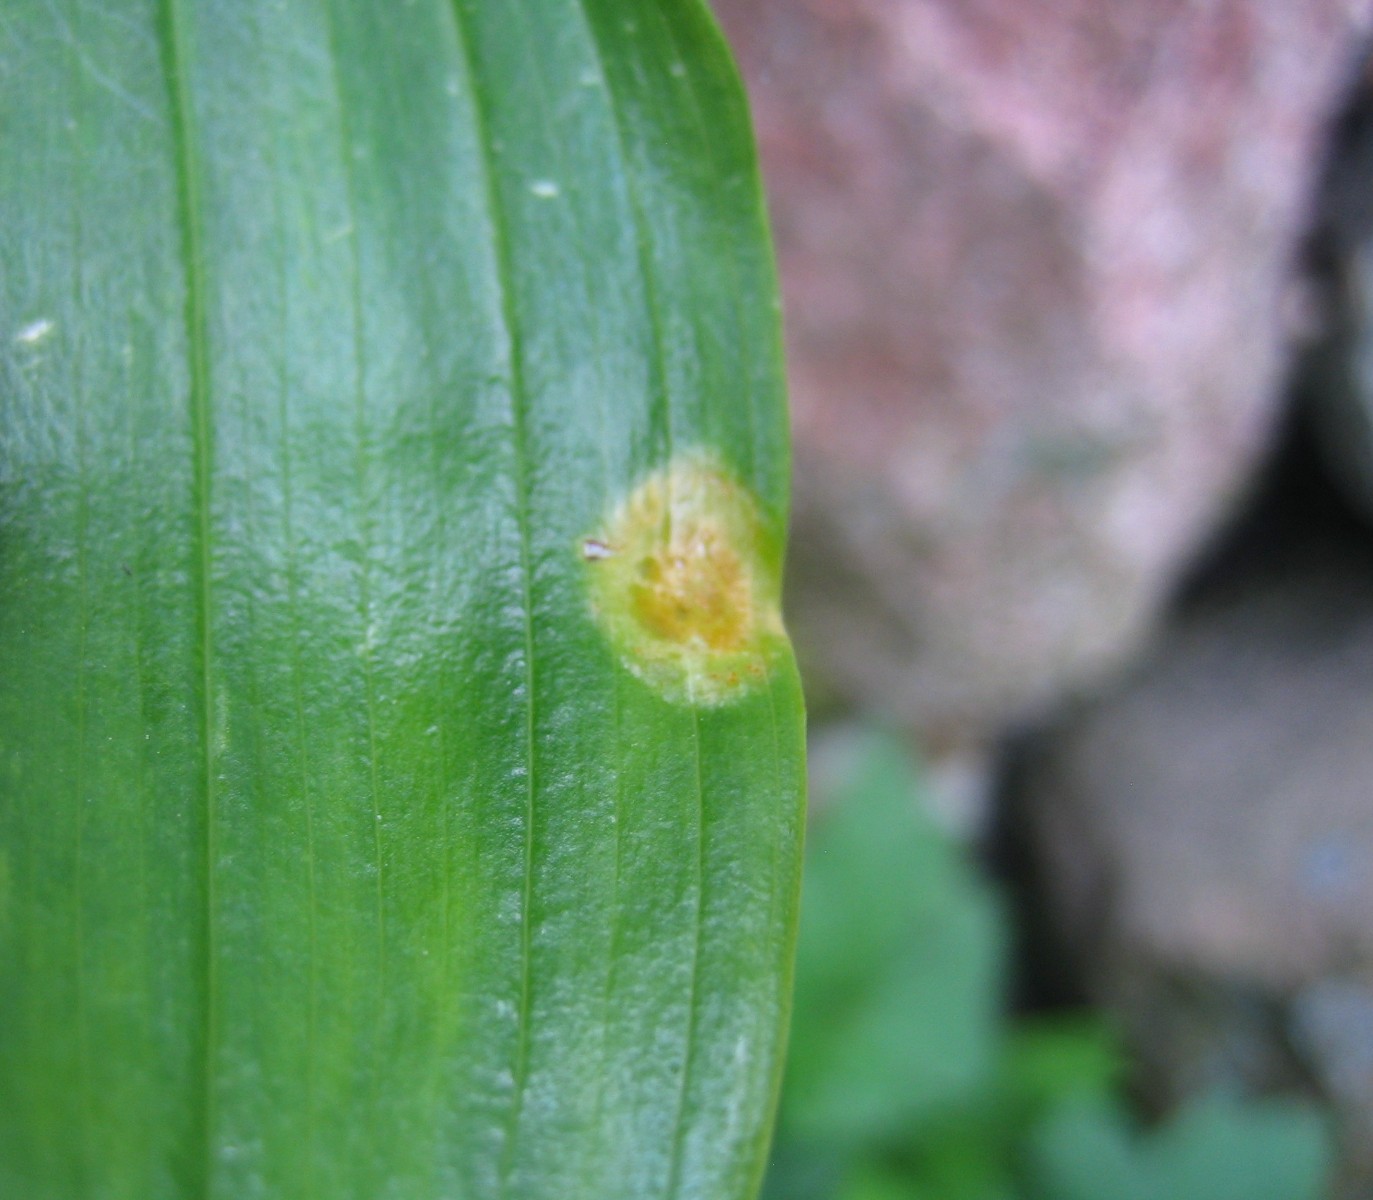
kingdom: Fungi
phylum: Basidiomycota
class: Pucciniomycetes
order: Pucciniales
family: Pucciniaceae
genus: Puccinia
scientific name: Puccinia sessilis
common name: Arum rust
